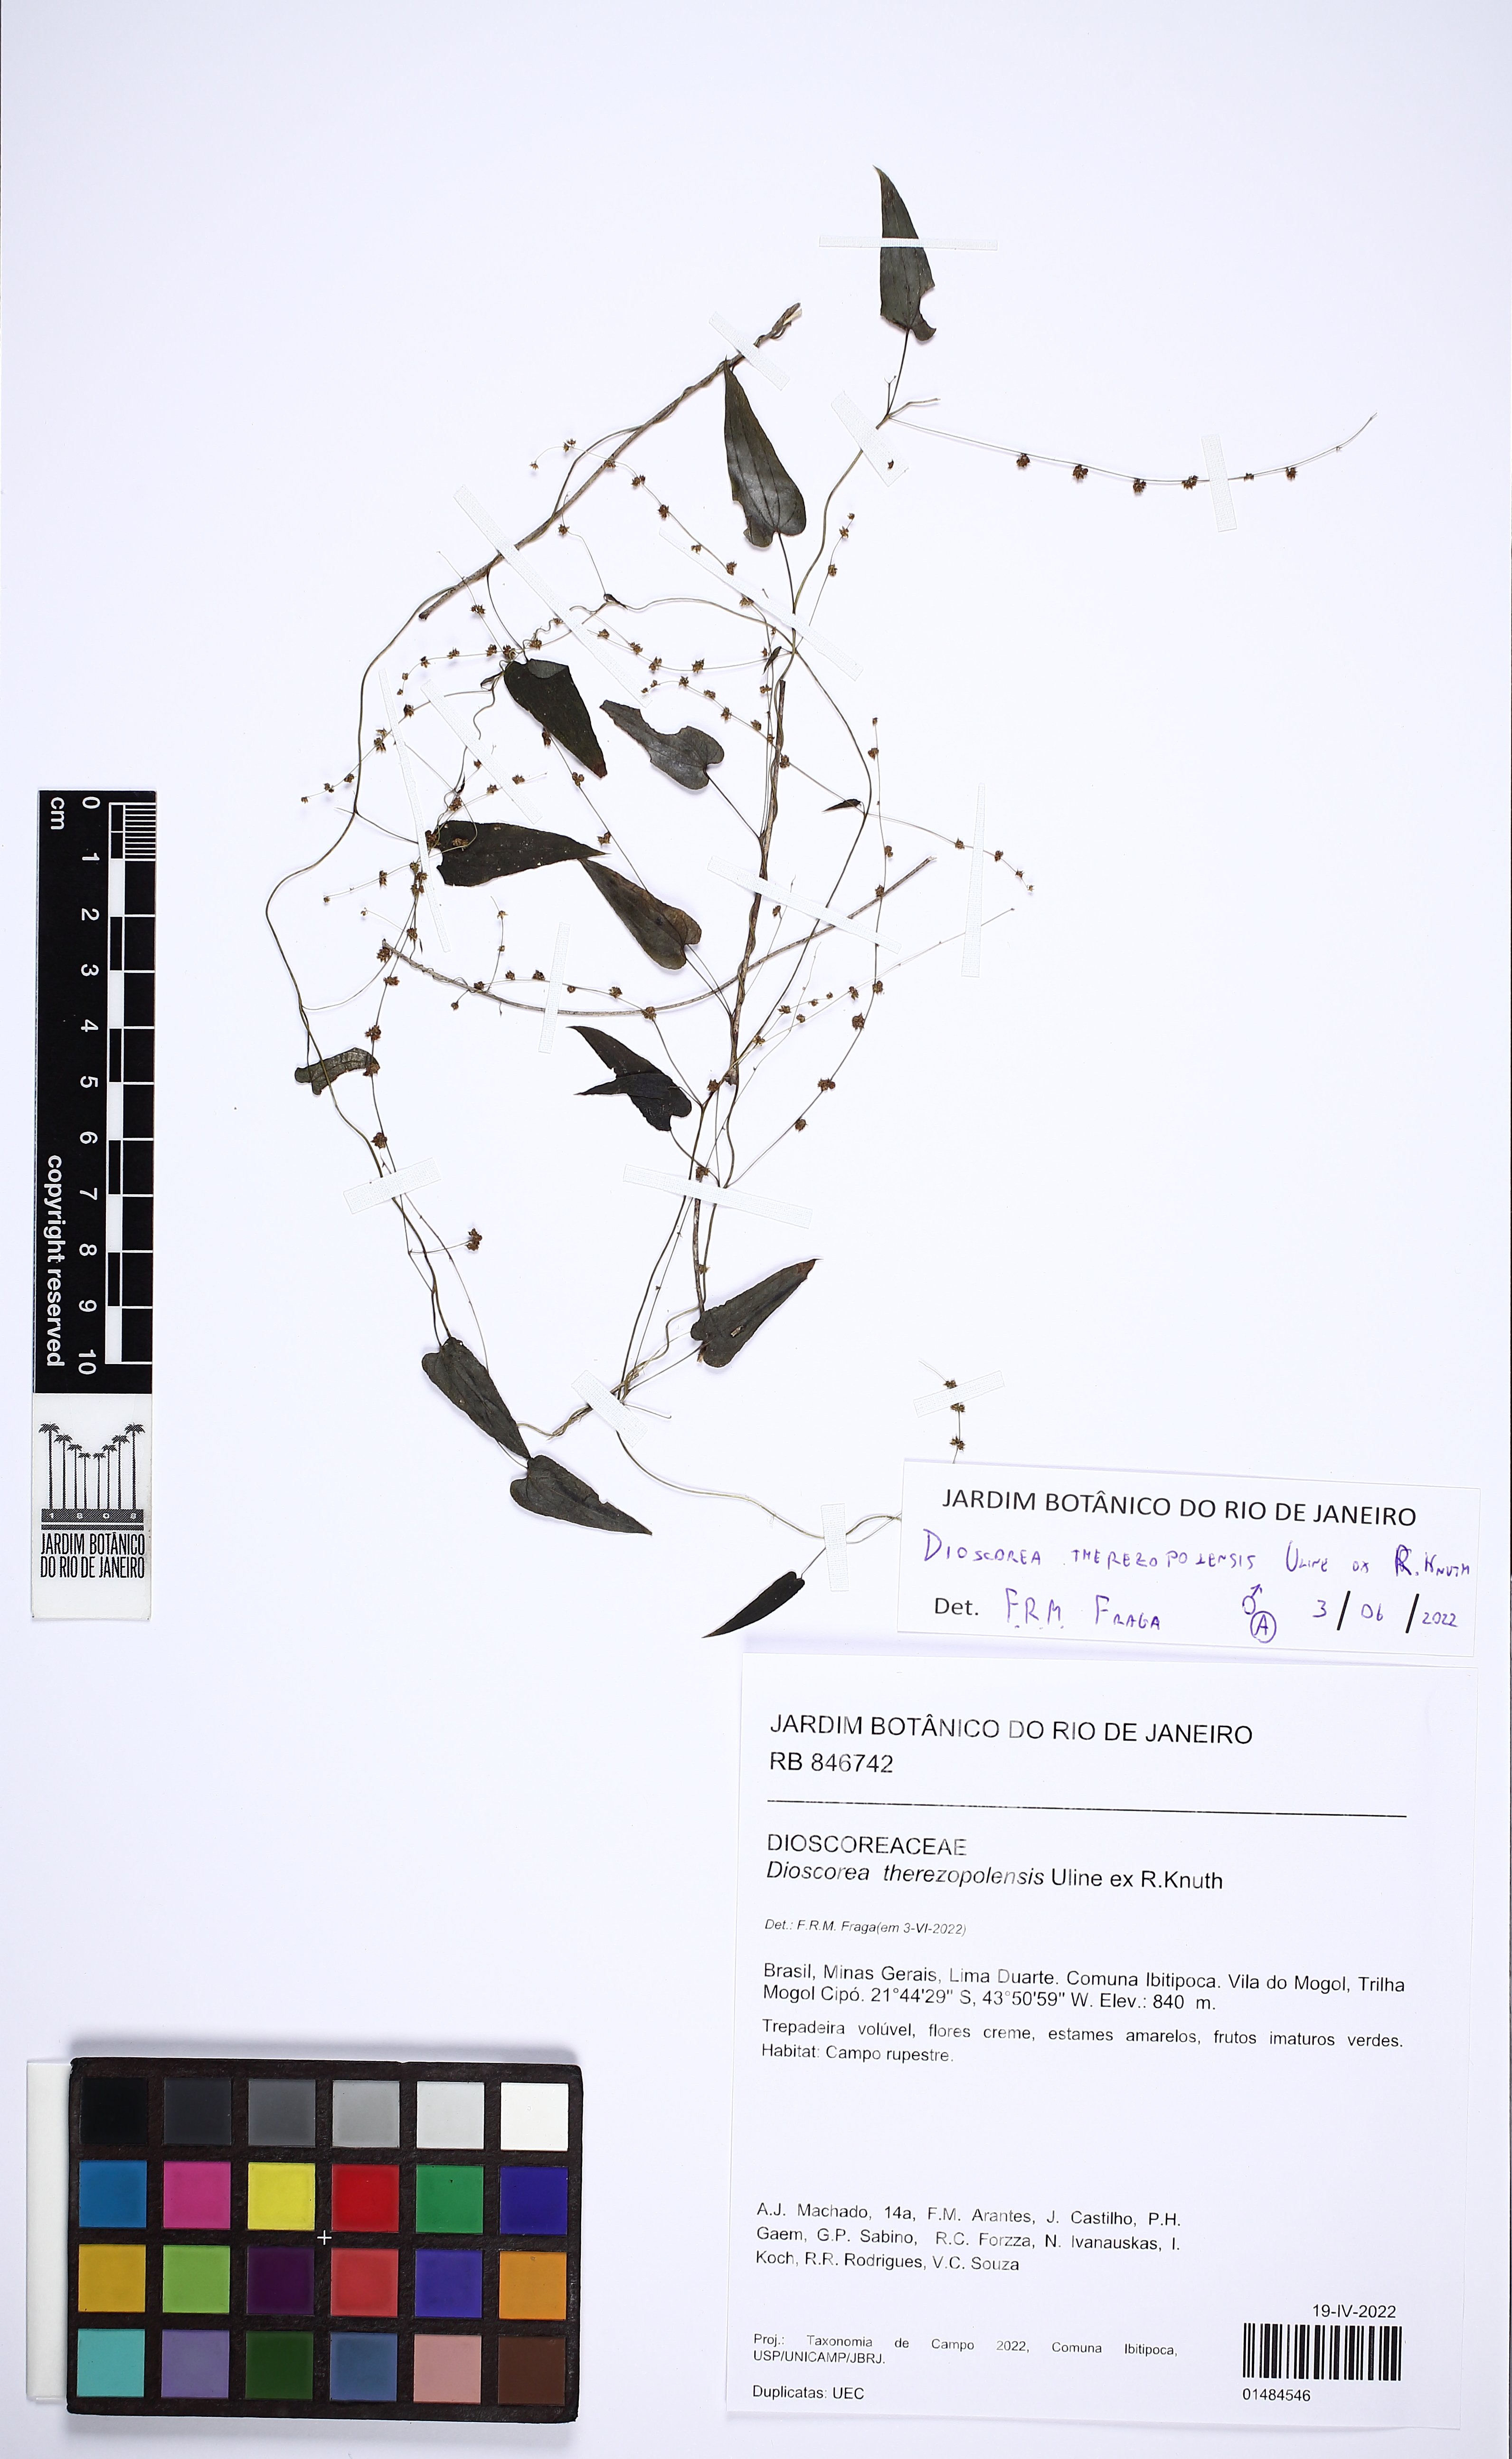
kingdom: Plantae
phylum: Tracheophyta
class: Liliopsida
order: Dioscoreales
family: Dioscoreaceae
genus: Dioscorea
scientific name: Dioscorea therezopolensis
